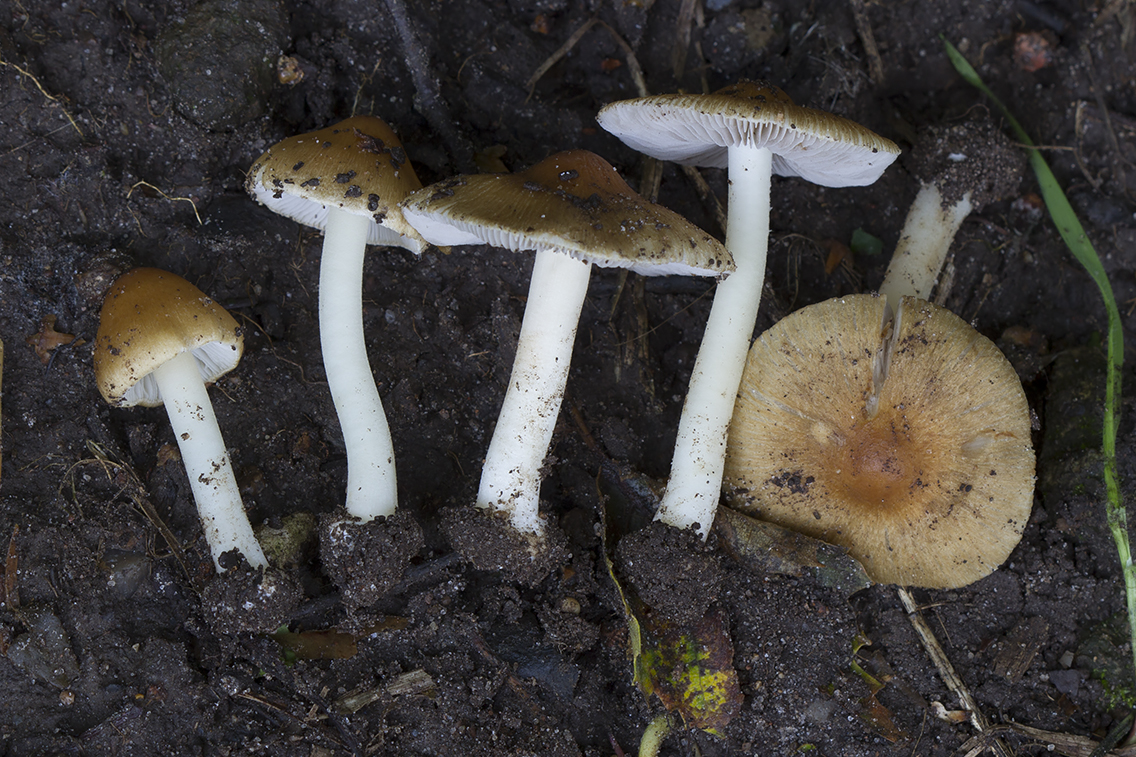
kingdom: Fungi
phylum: Basidiomycota
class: Agaricomycetes
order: Agaricales
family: Inocybaceae
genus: Inocybe
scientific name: Inocybe
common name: trævlhat
